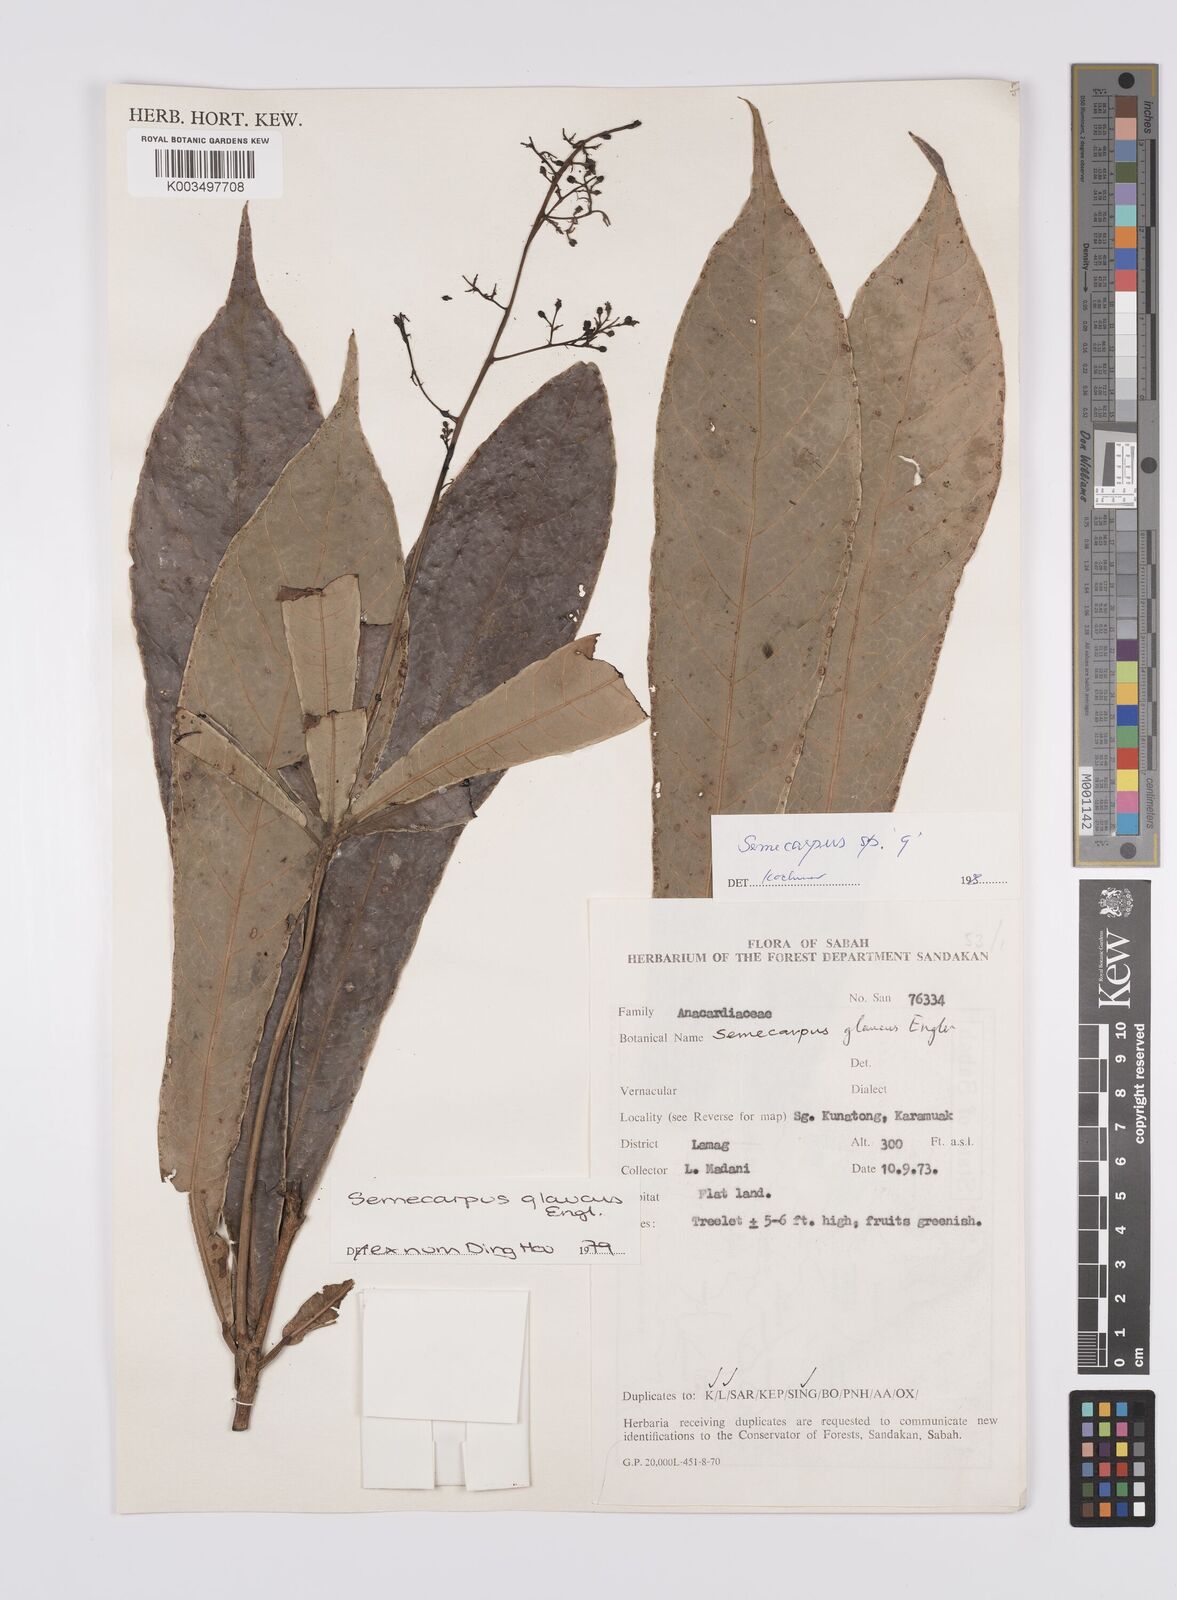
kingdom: Plantae
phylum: Tracheophyta
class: Magnoliopsida
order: Sapindales
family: Anacardiaceae
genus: Semecarpus
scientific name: Semecarpus
